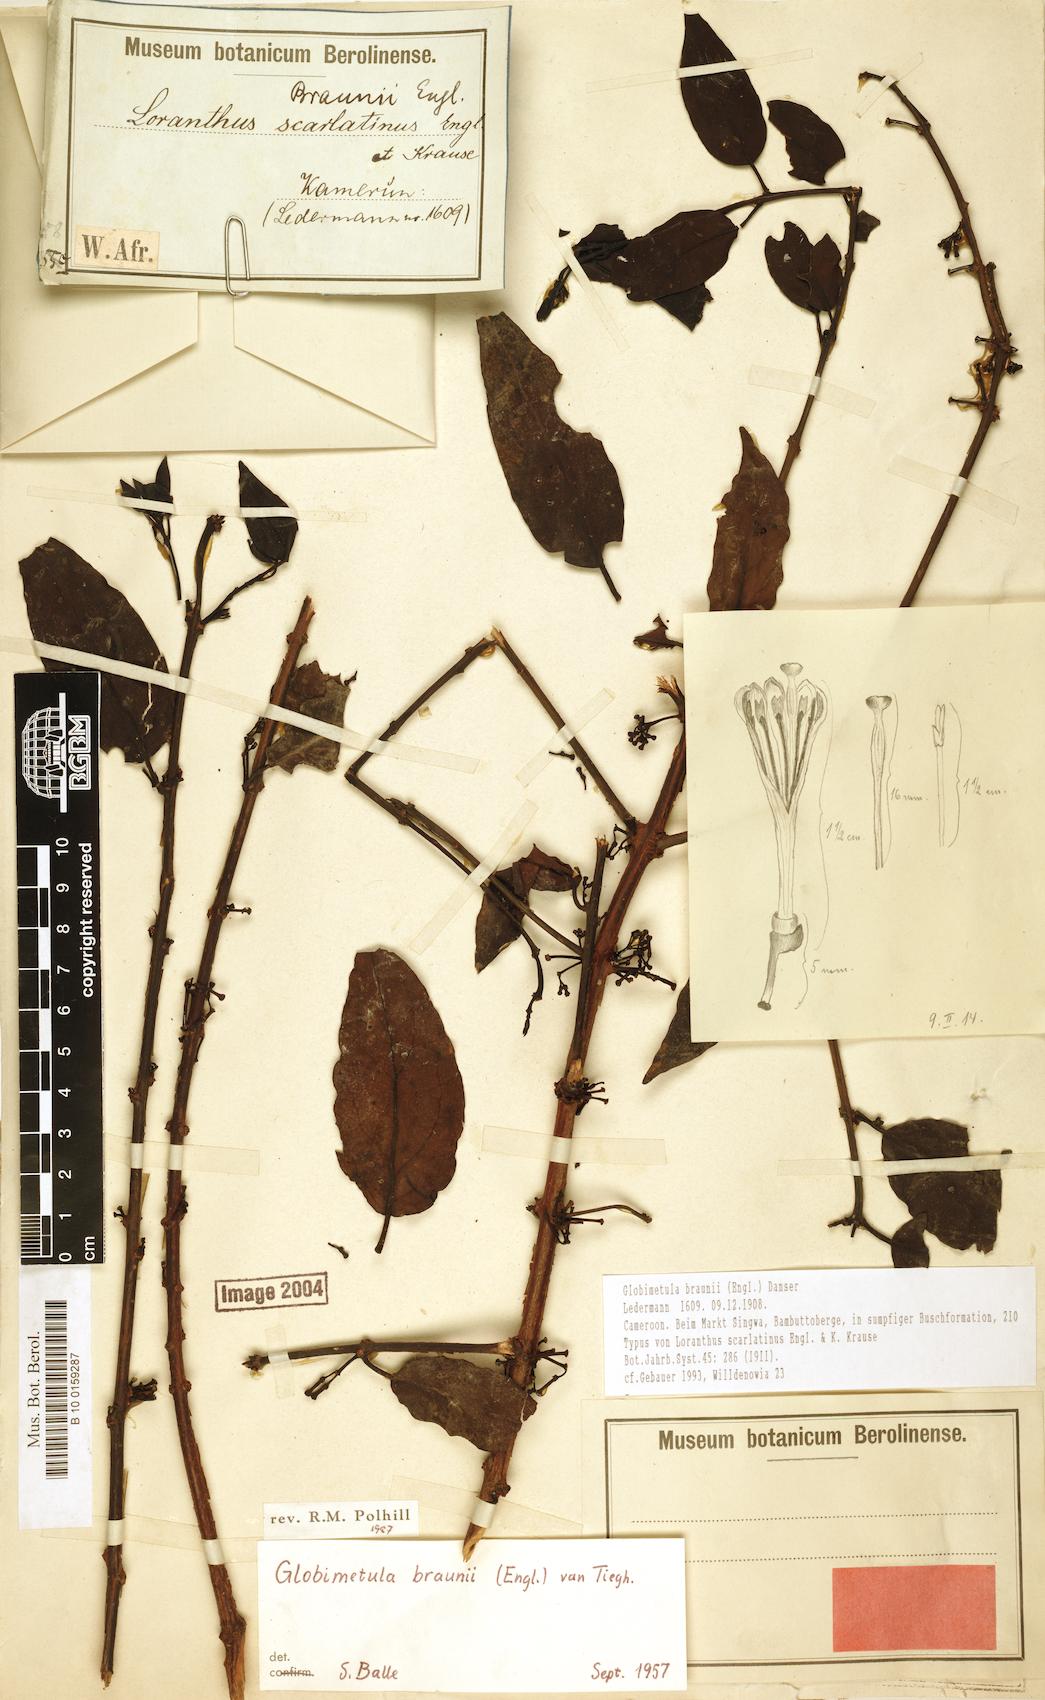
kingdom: Plantae
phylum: Tracheophyta
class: Magnoliopsida
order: Santalales
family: Loranthaceae
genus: Globimetula
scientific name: Globimetula braunii
